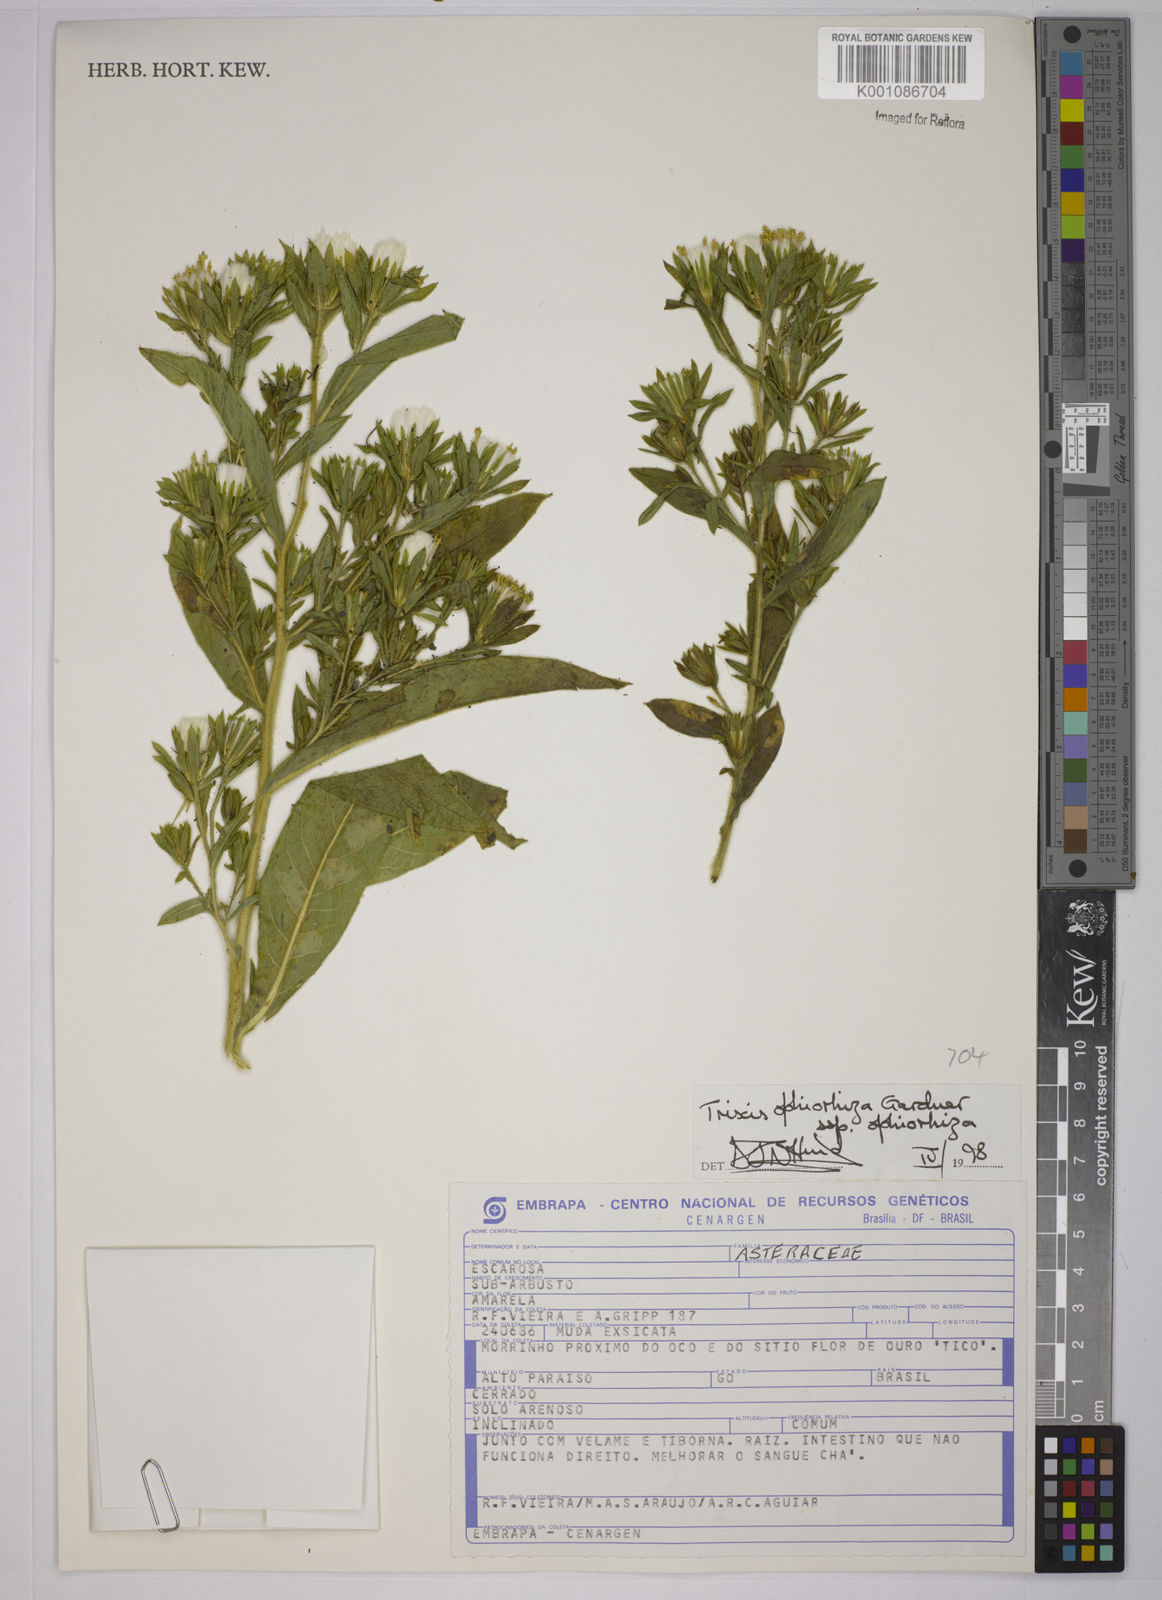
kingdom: Plantae
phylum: Tracheophyta
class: Magnoliopsida
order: Asterales
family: Asteraceae
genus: Trixis
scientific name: Trixis ophiorhiza
